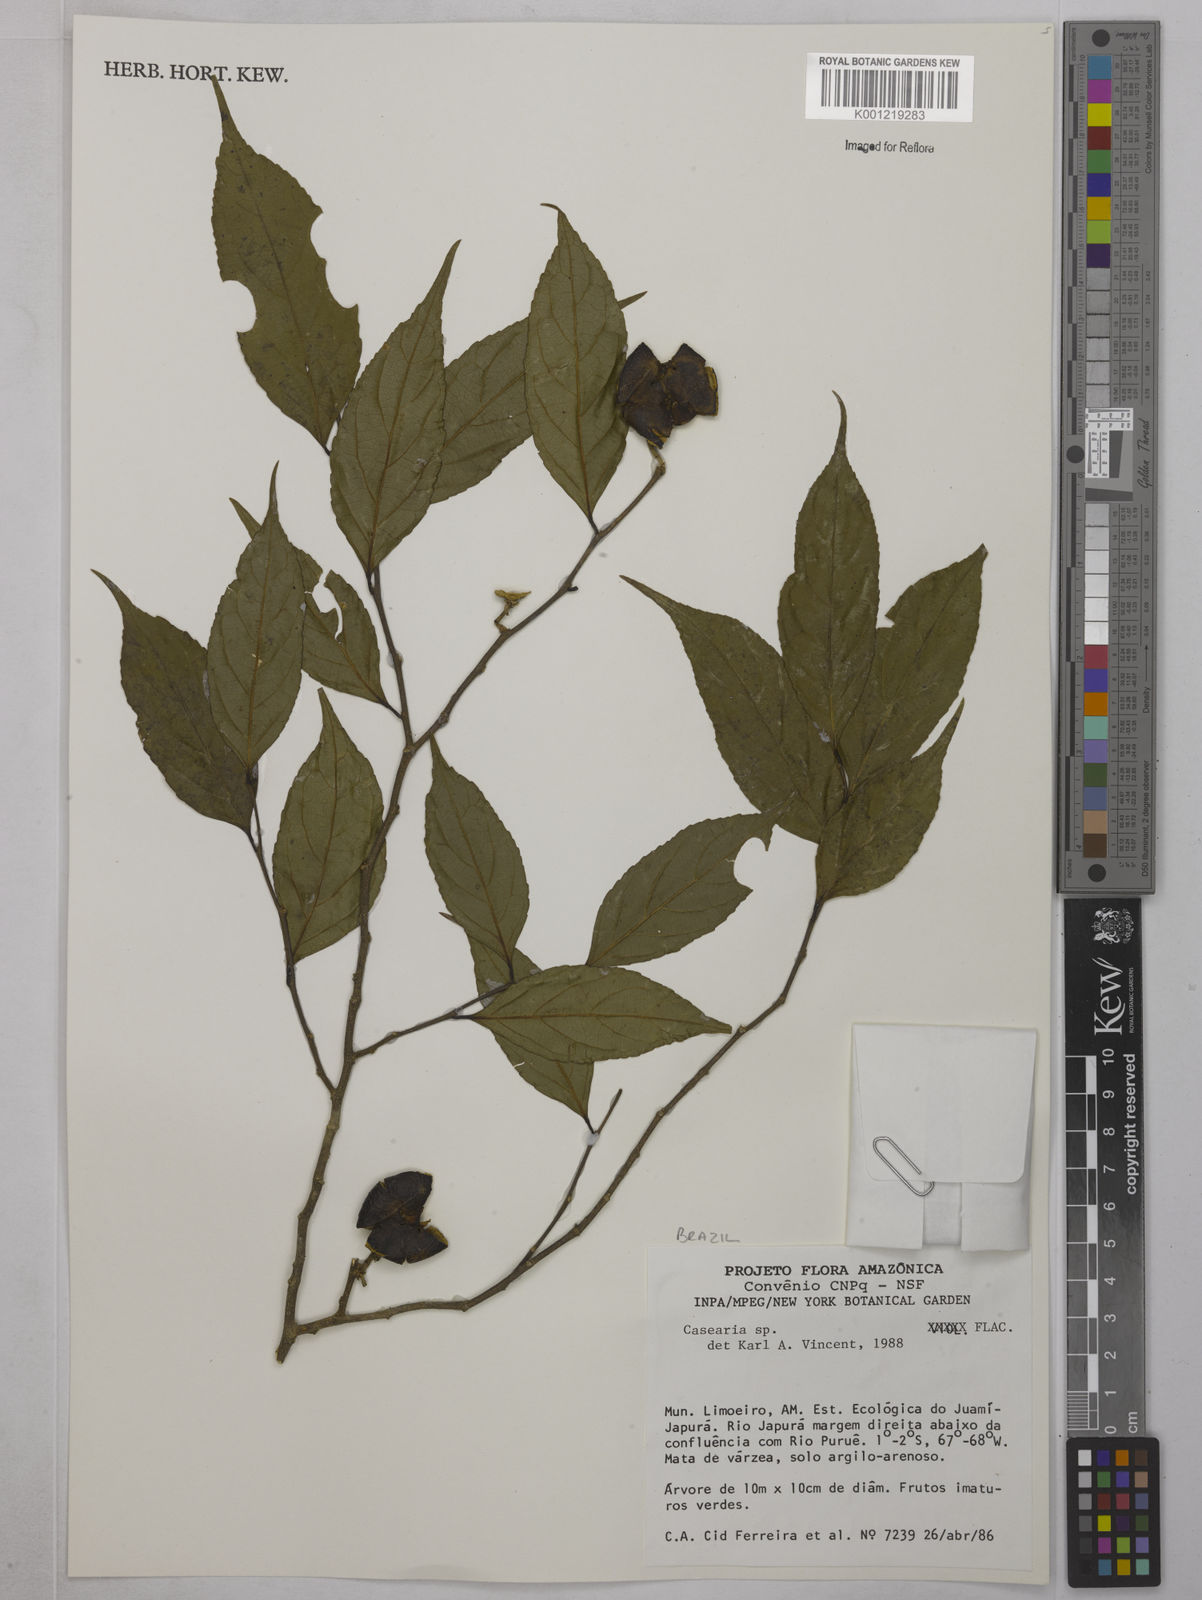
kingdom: Plantae
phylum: Tracheophyta
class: Magnoliopsida
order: Malpighiales
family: Salicaceae
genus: Casearia
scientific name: Casearia
